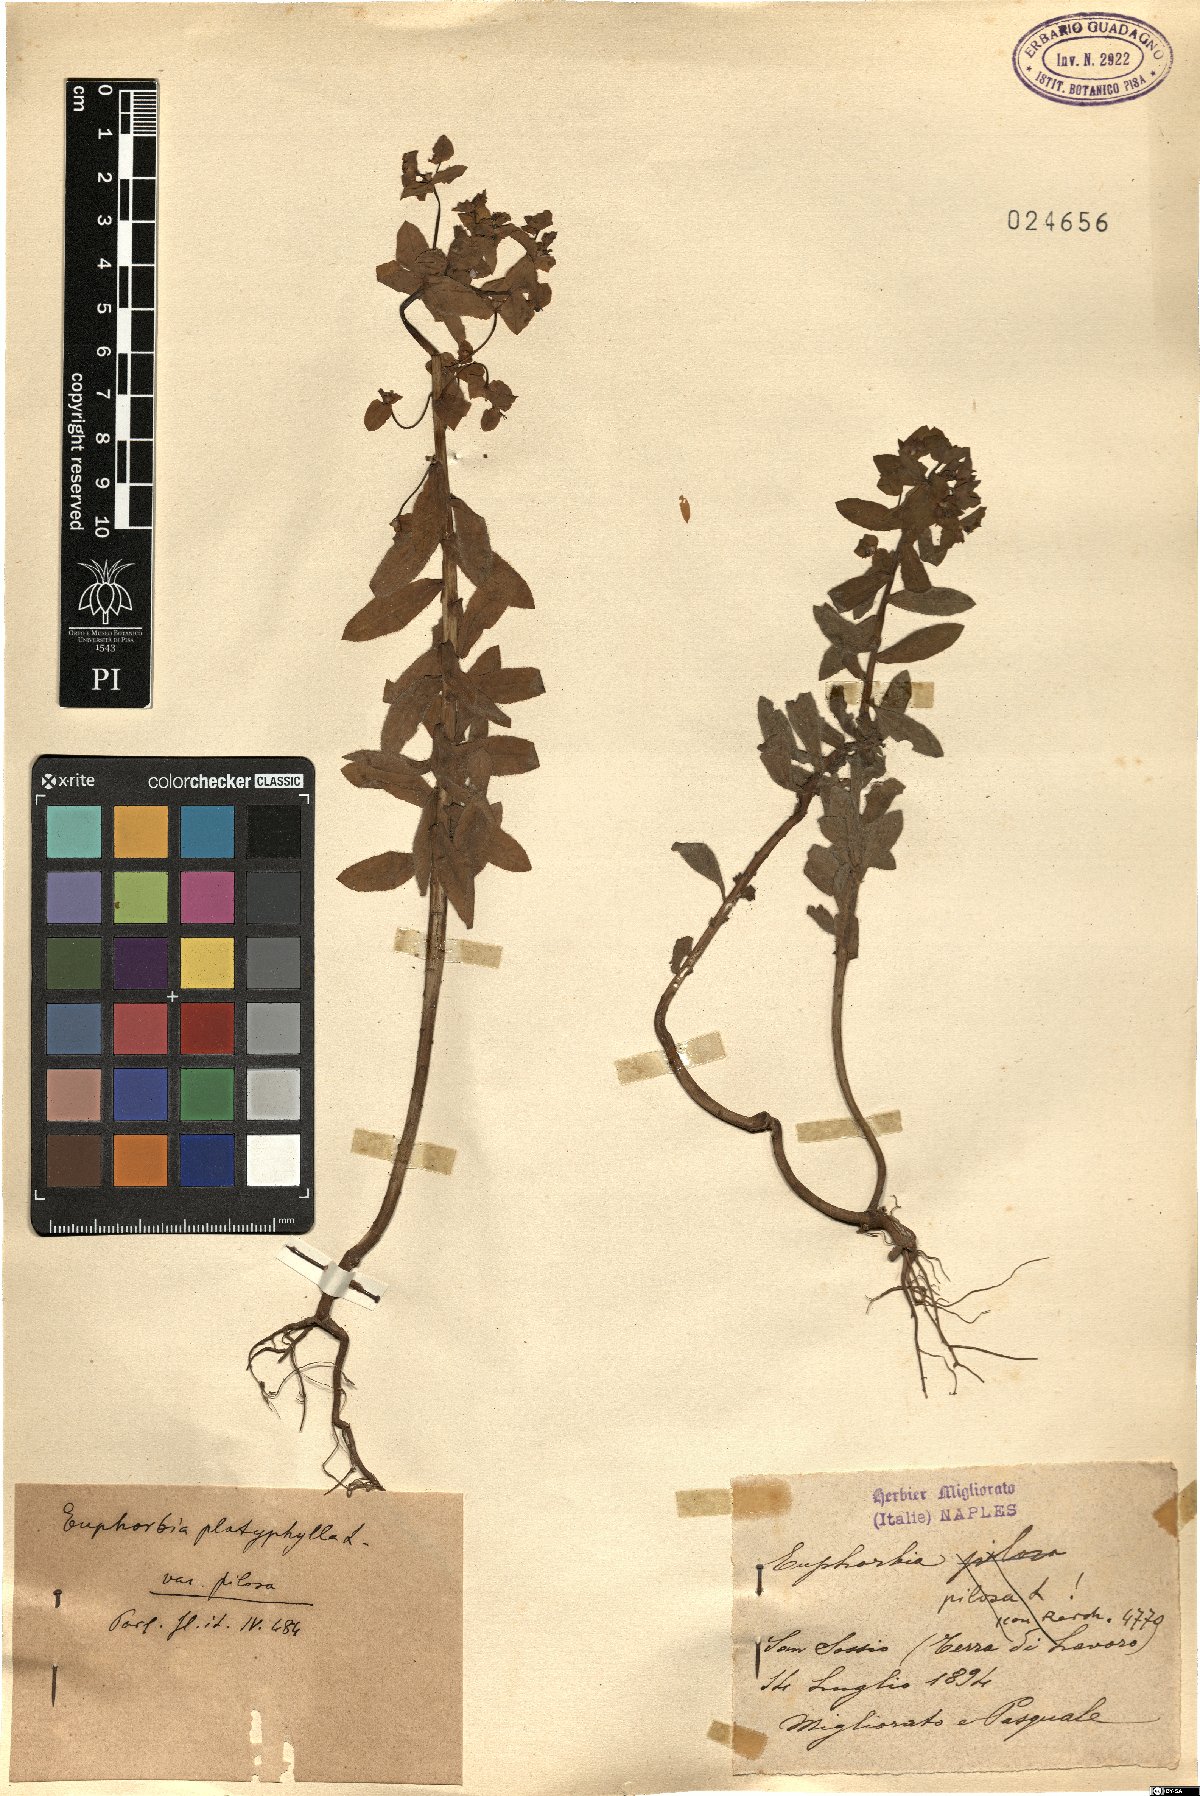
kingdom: Plantae
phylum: Tracheophyta
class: Magnoliopsida
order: Malpighiales
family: Euphorbiaceae
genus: Euphorbia
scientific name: Euphorbia platyphyllos
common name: Broad-leaved spurge
